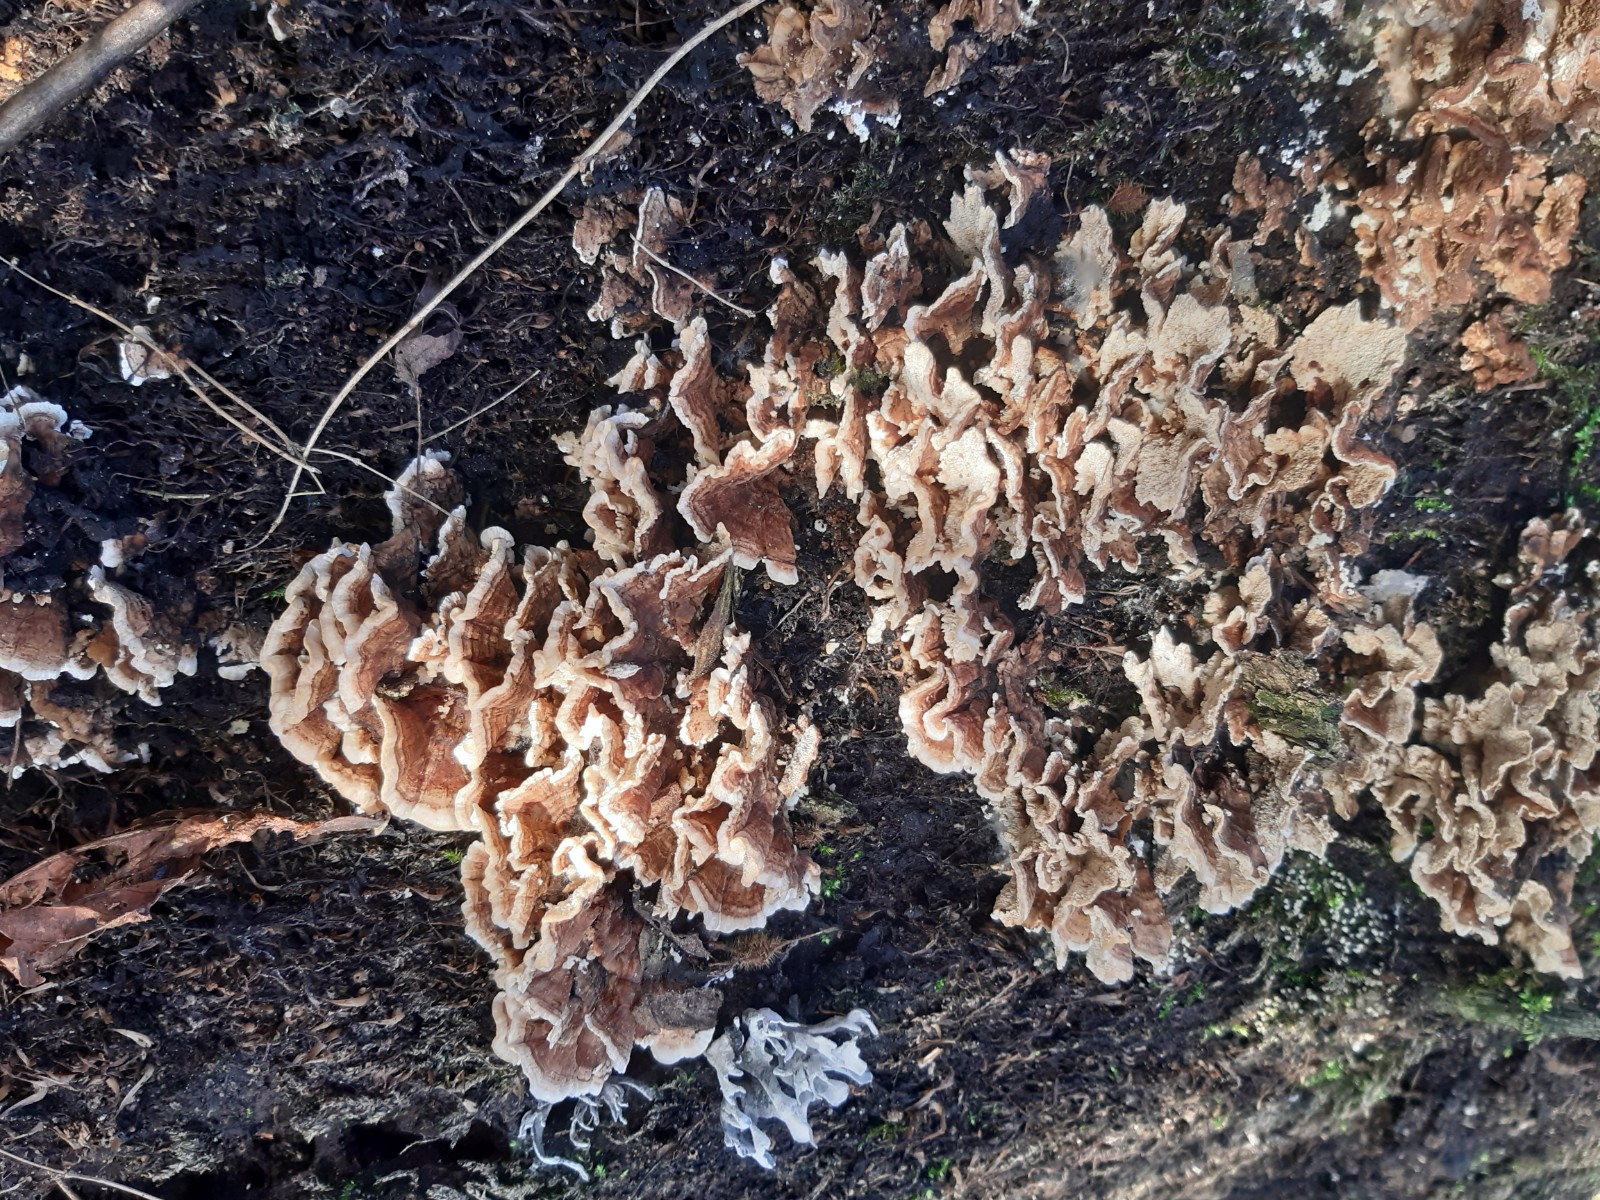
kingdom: Fungi
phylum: Basidiomycota
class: Agaricomycetes
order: Polyporales
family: Polyporaceae
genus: Trametes
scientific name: Trametes versicolor
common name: broget læderporesvamp
